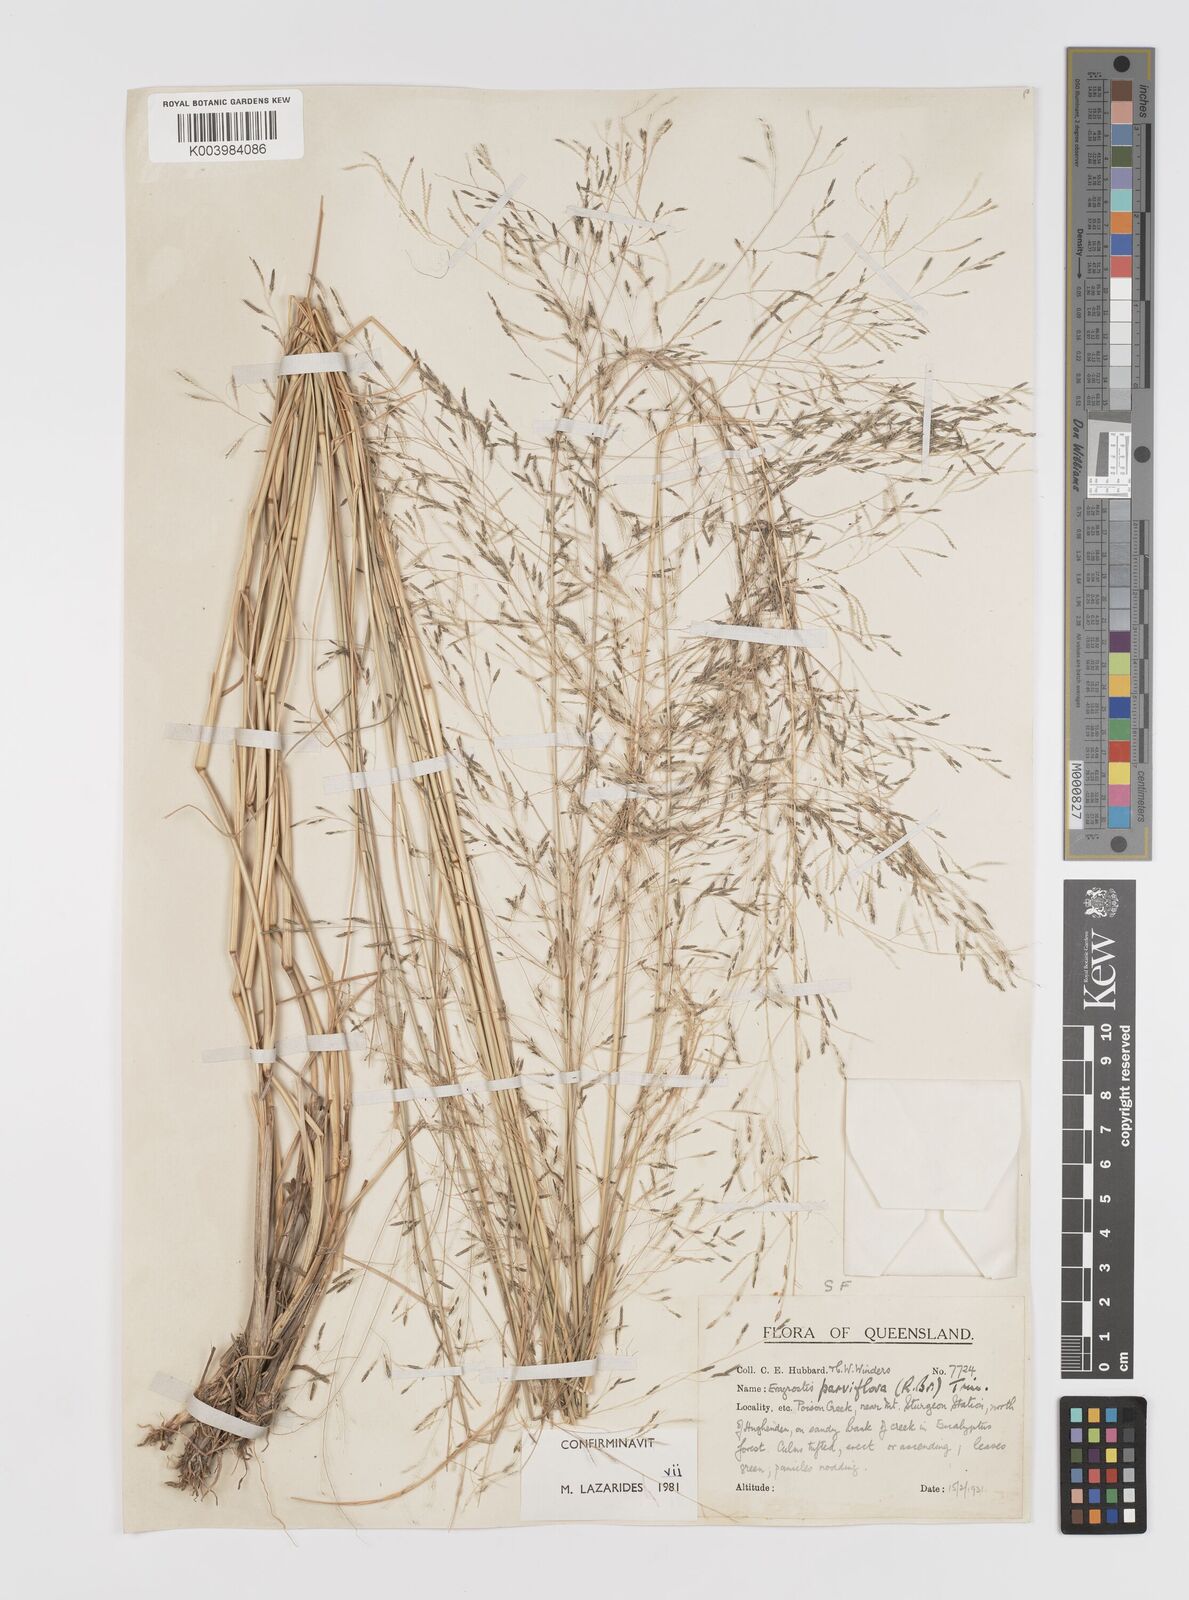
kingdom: Plantae
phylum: Tracheophyta
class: Liliopsida
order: Poales
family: Poaceae
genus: Eragrostis
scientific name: Eragrostis parviflora
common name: Weeping love-grass
